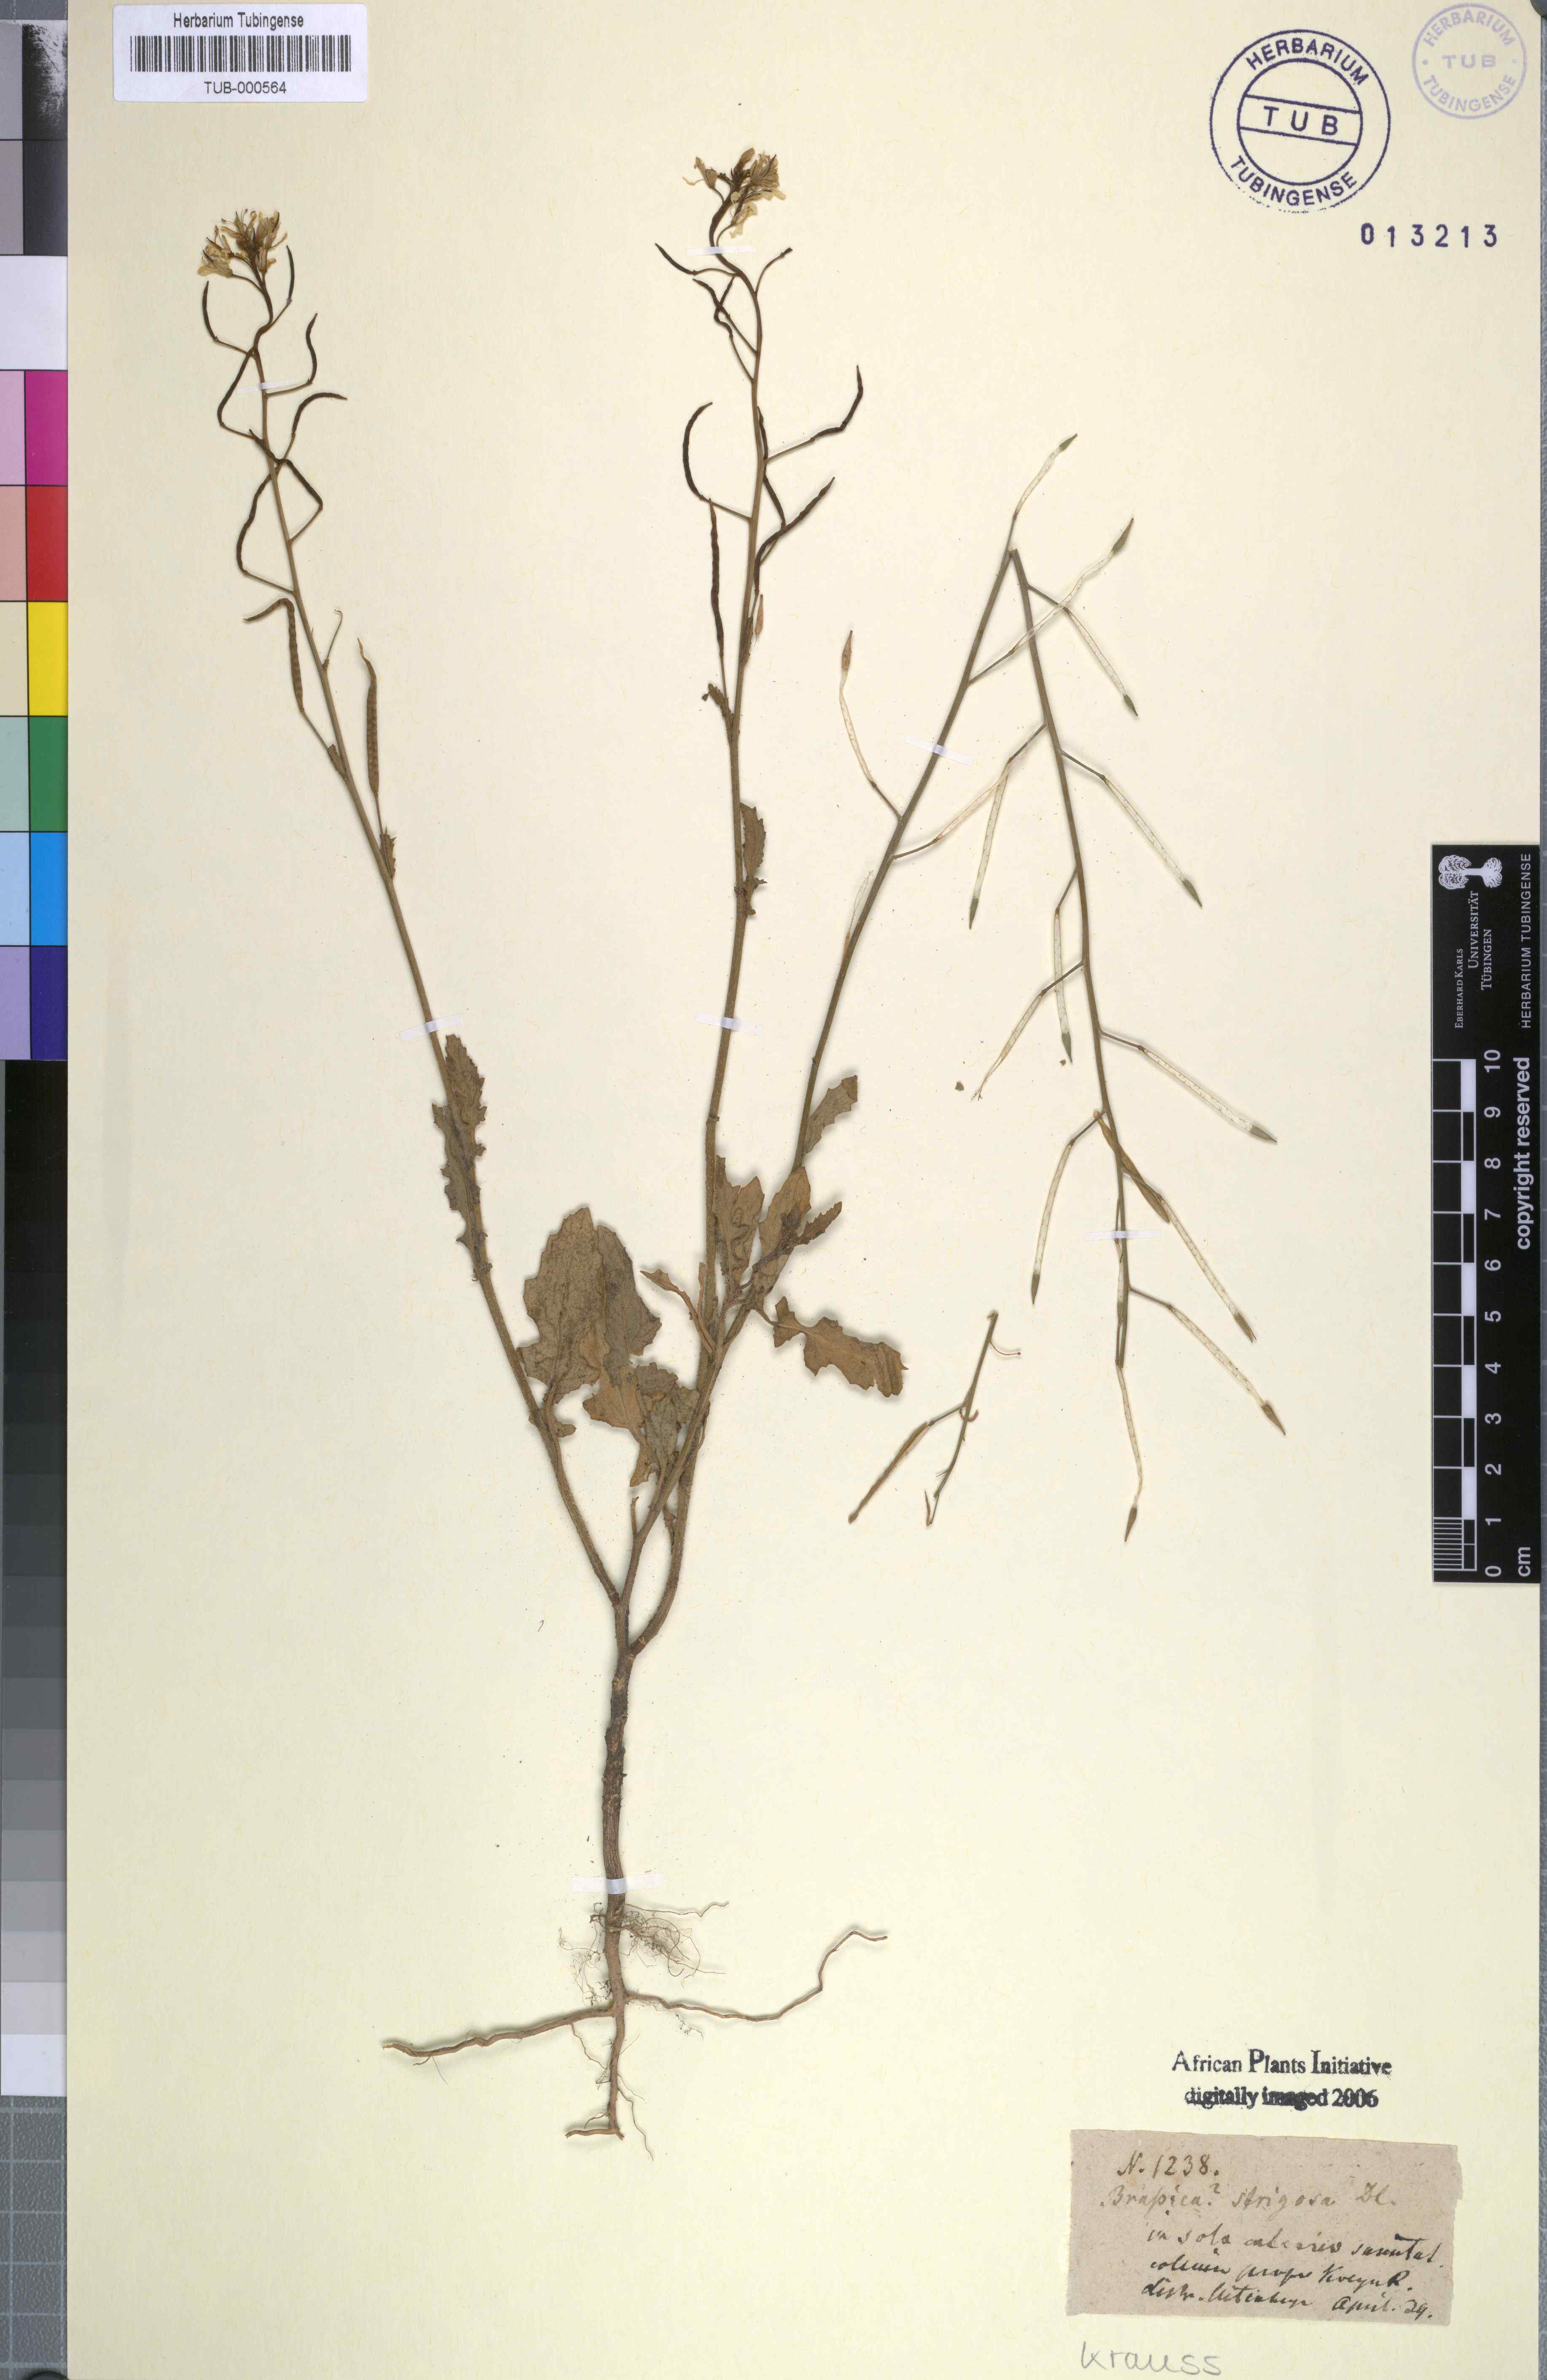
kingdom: Plantae
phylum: Tracheophyta
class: Magnoliopsida
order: Brassicales
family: Brassicaceae
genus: Erucastrum
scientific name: Erucastrum strigosum
